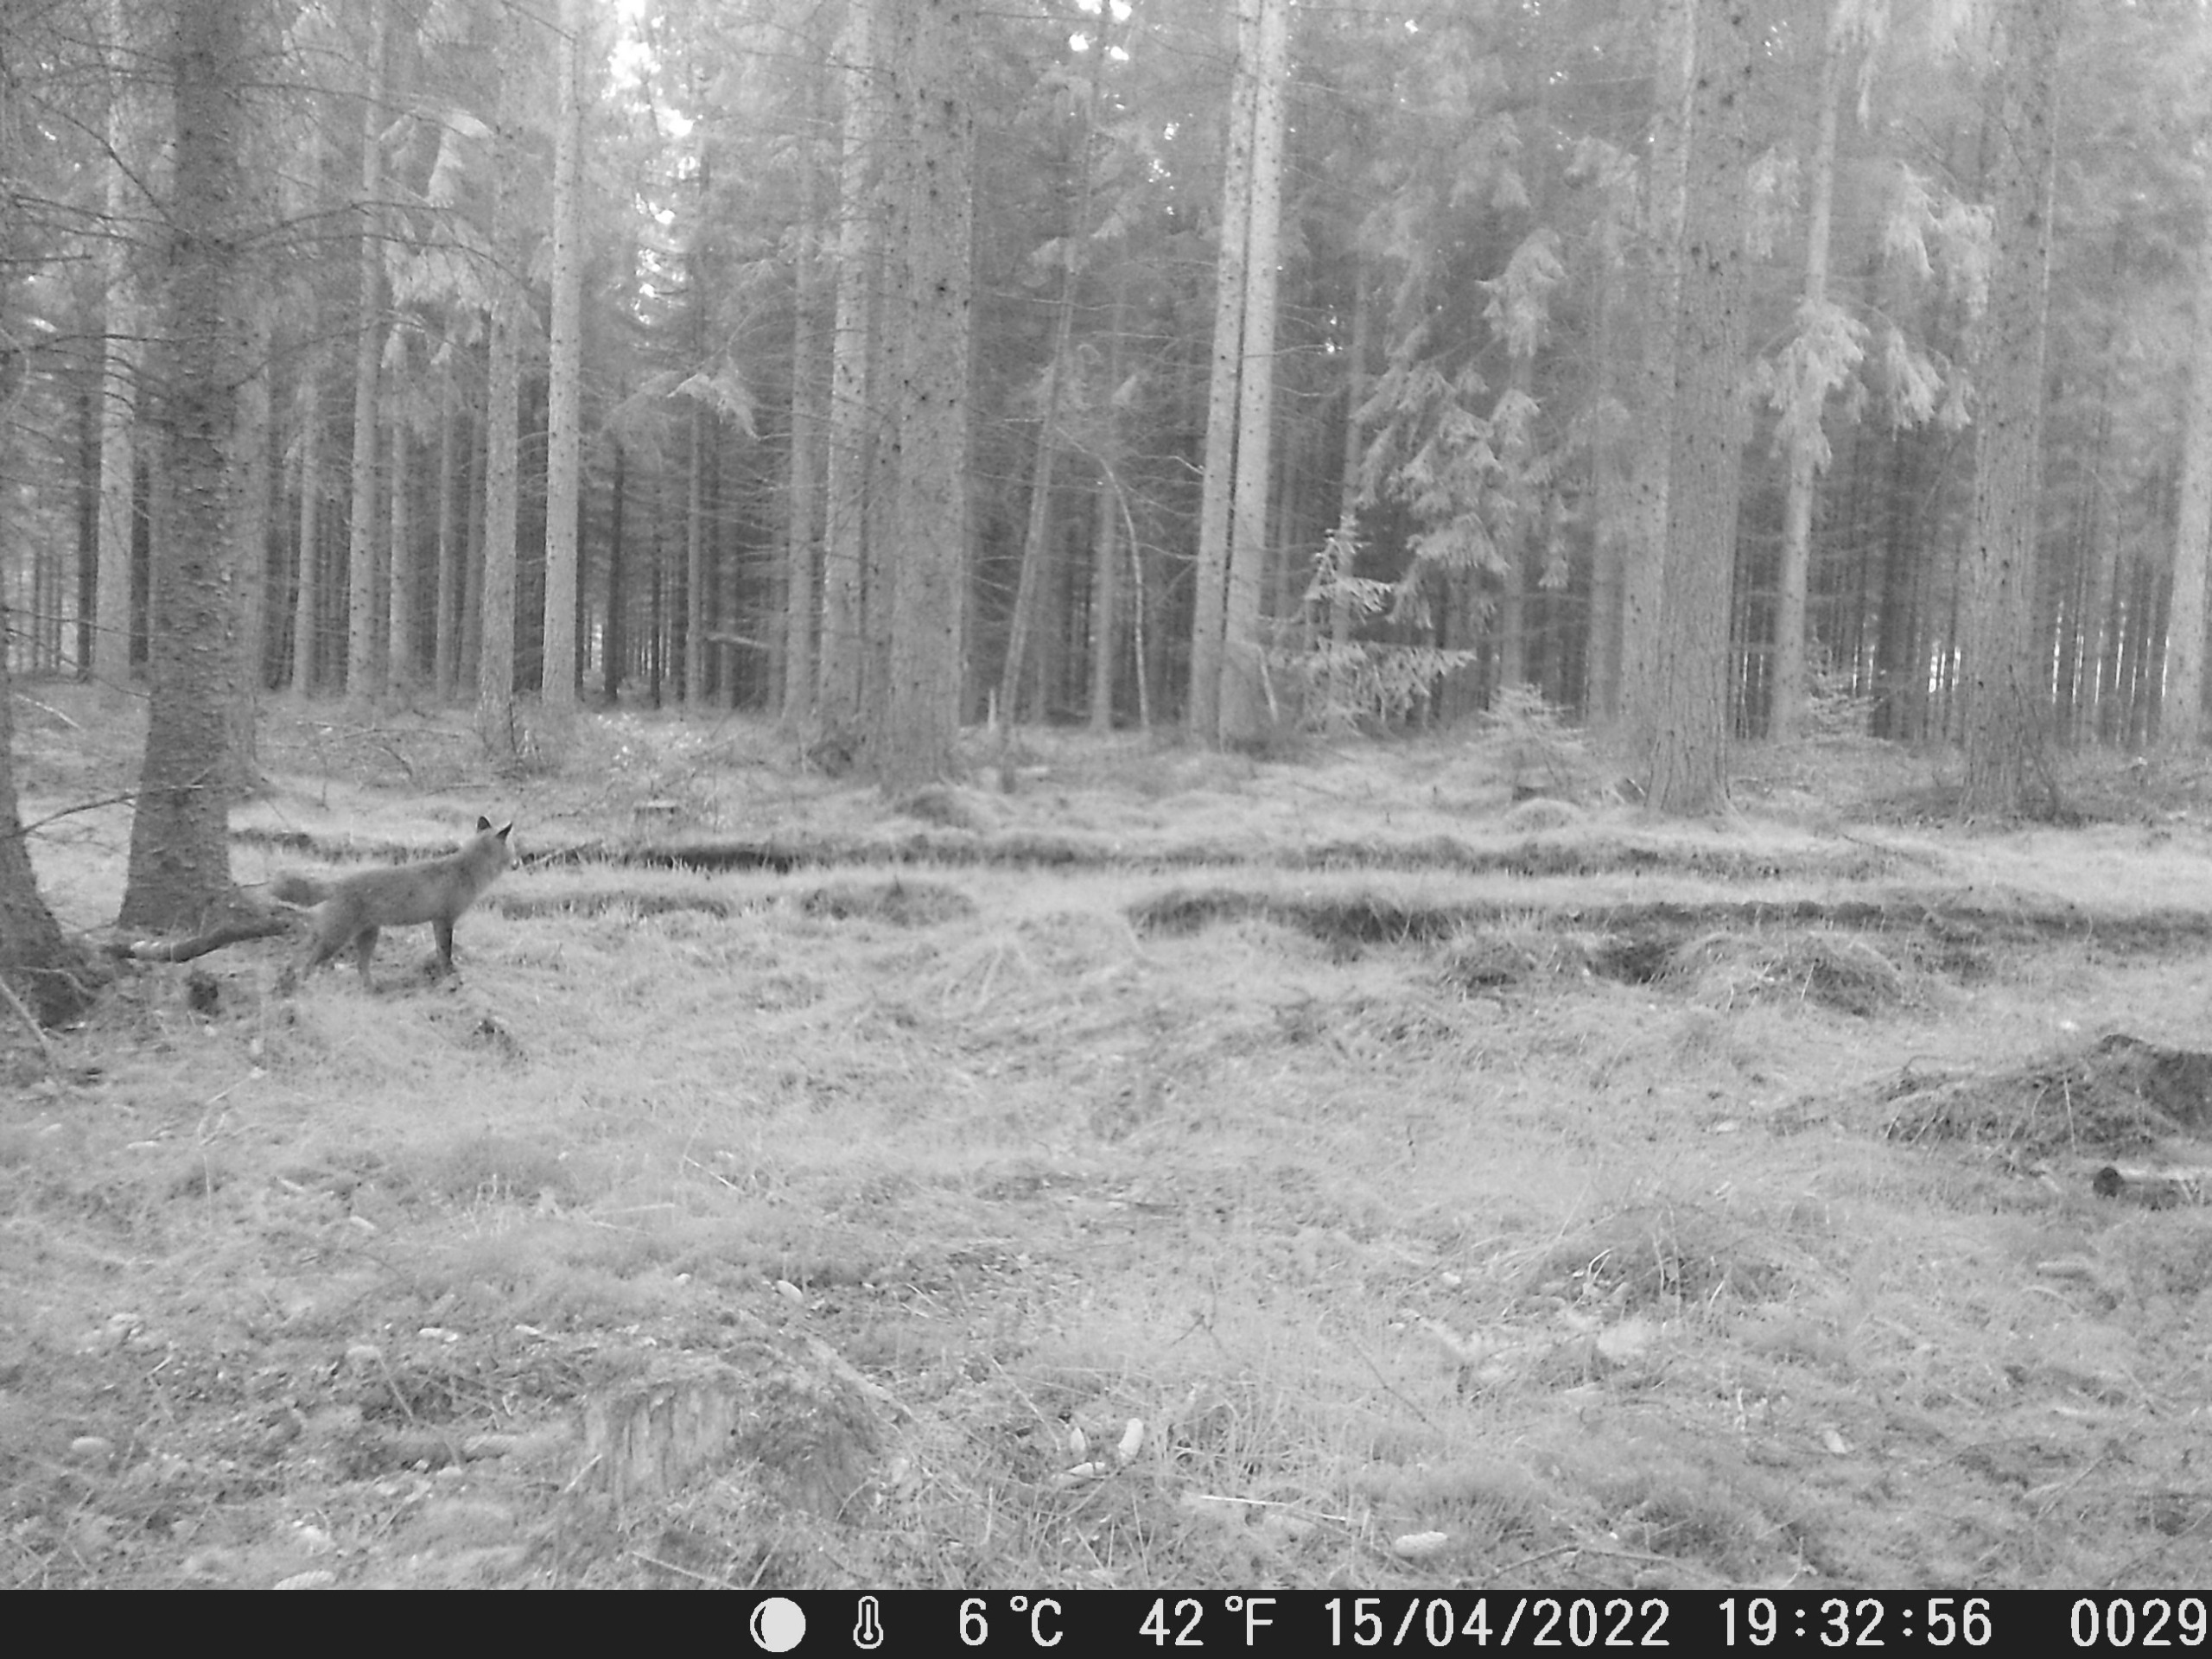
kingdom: Animalia
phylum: Chordata
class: Mammalia
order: Carnivora
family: Canidae
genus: Vulpes
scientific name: Vulpes vulpes
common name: Ræv
